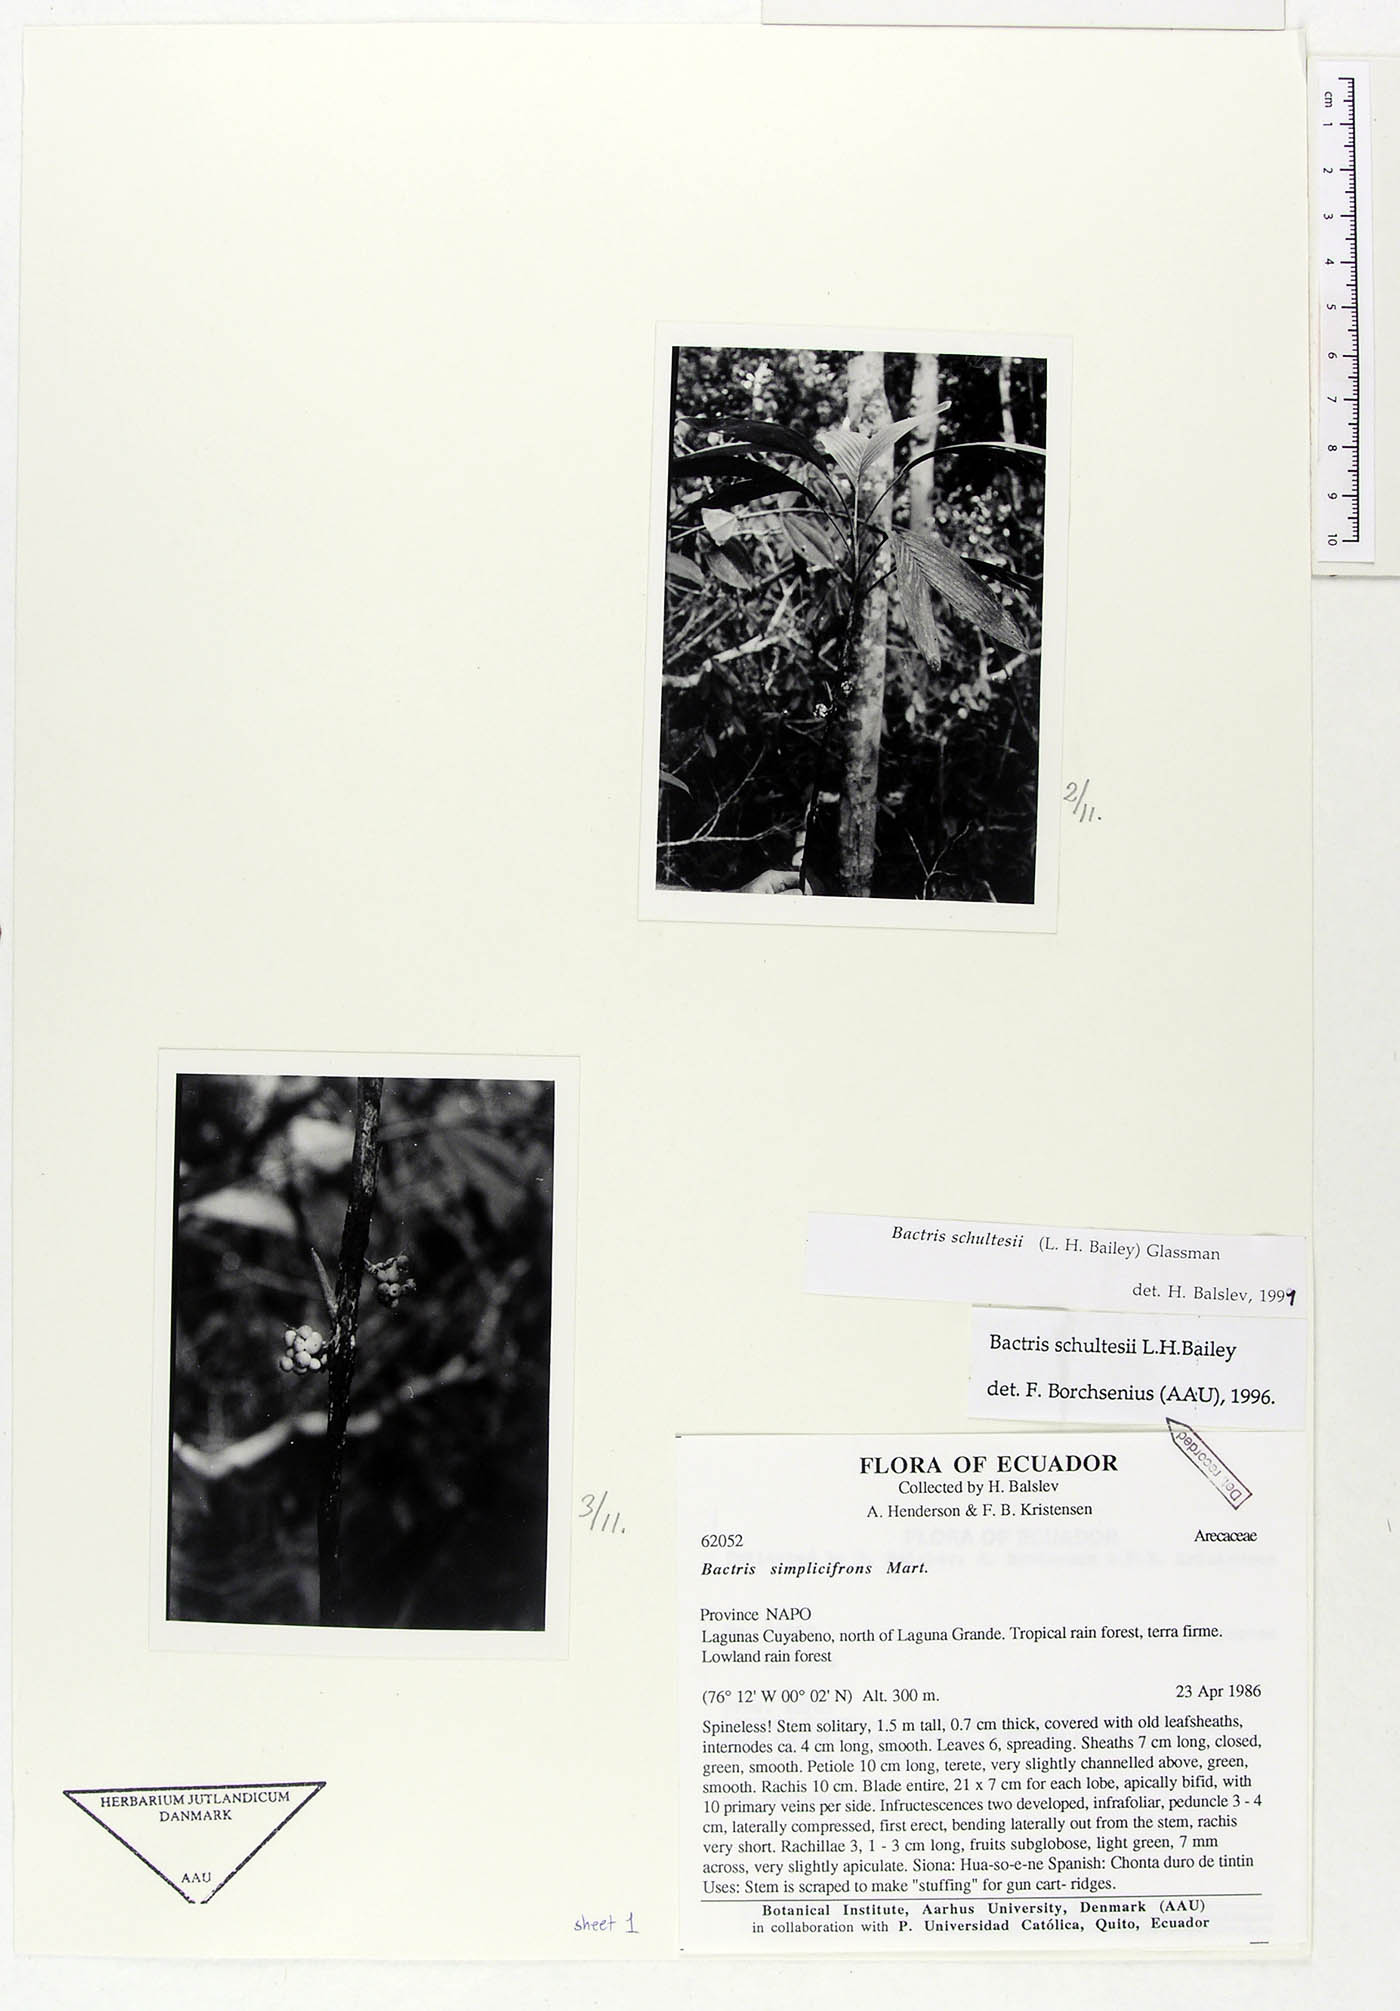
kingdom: Plantae
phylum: Tracheophyta
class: Liliopsida
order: Arecales
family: Arecaceae
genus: Bactris
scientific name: Bactris schultesii
